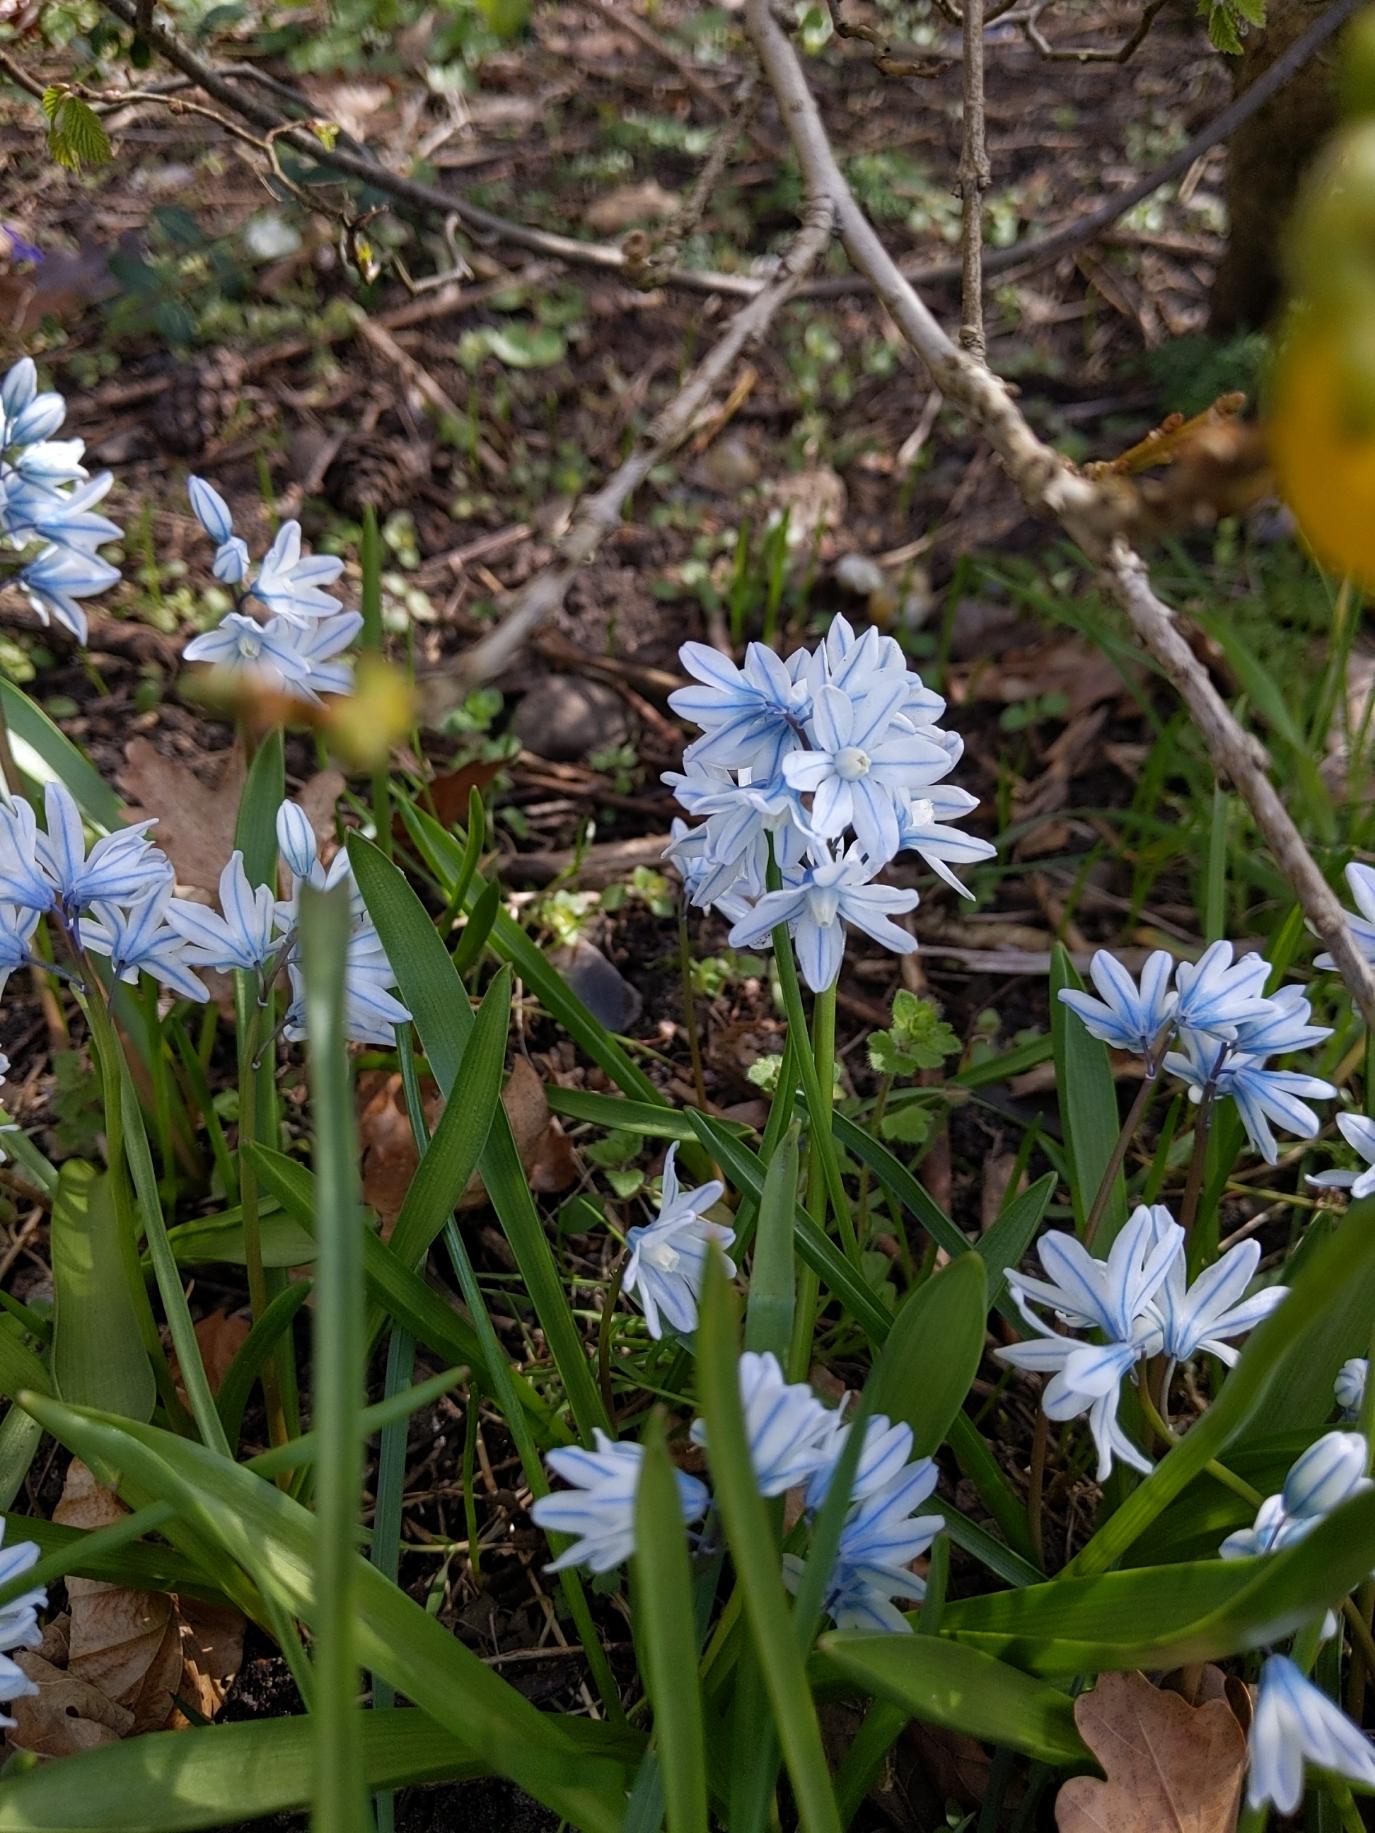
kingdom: Plantae
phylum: Tracheophyta
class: Liliopsida
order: Asparagales
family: Asparagaceae
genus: Puschkinia
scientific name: Puschkinia scilloides
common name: Porcelænshyacint
